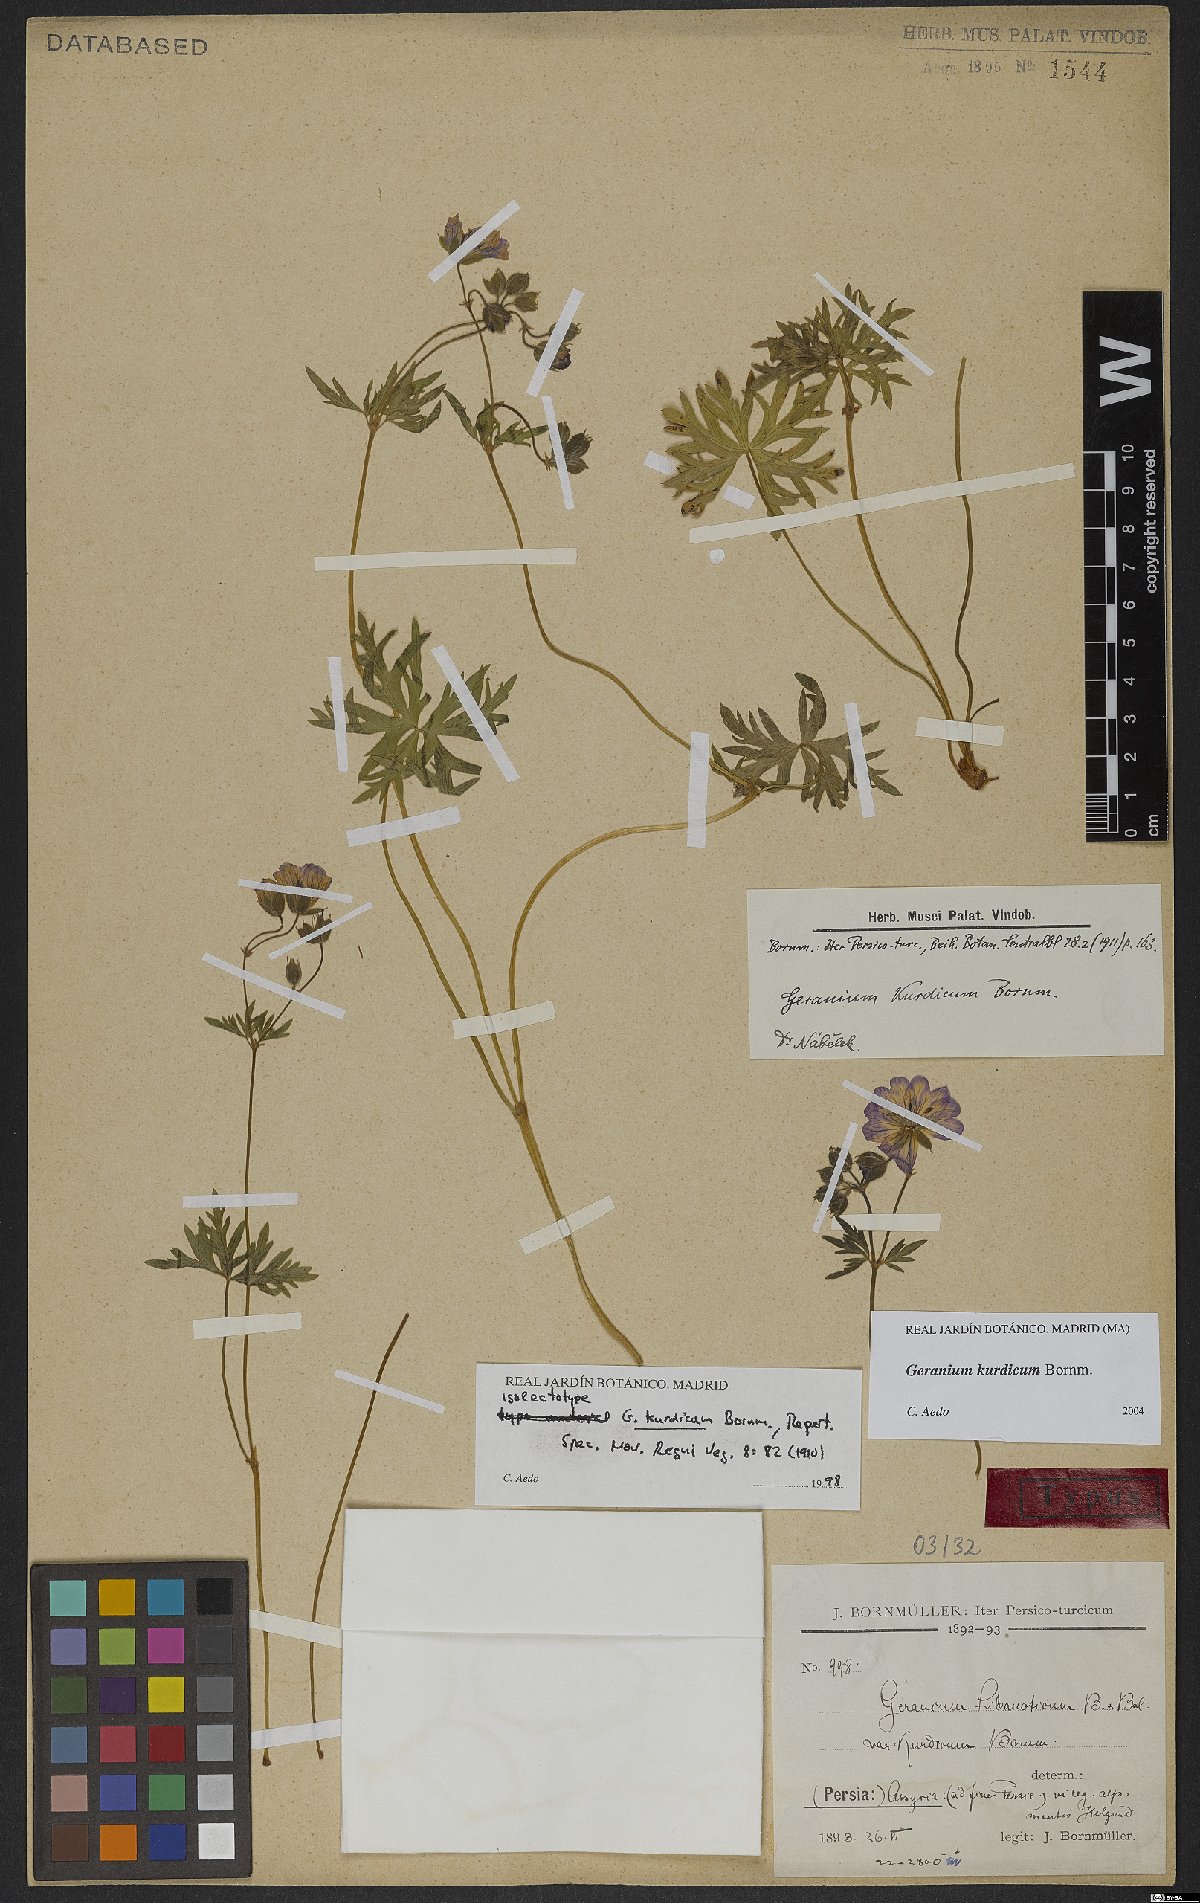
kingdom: Plantae
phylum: Tracheophyta
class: Magnoliopsida
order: Geraniales
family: Geraniaceae
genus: Geranium
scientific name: Geranium kurdicum
